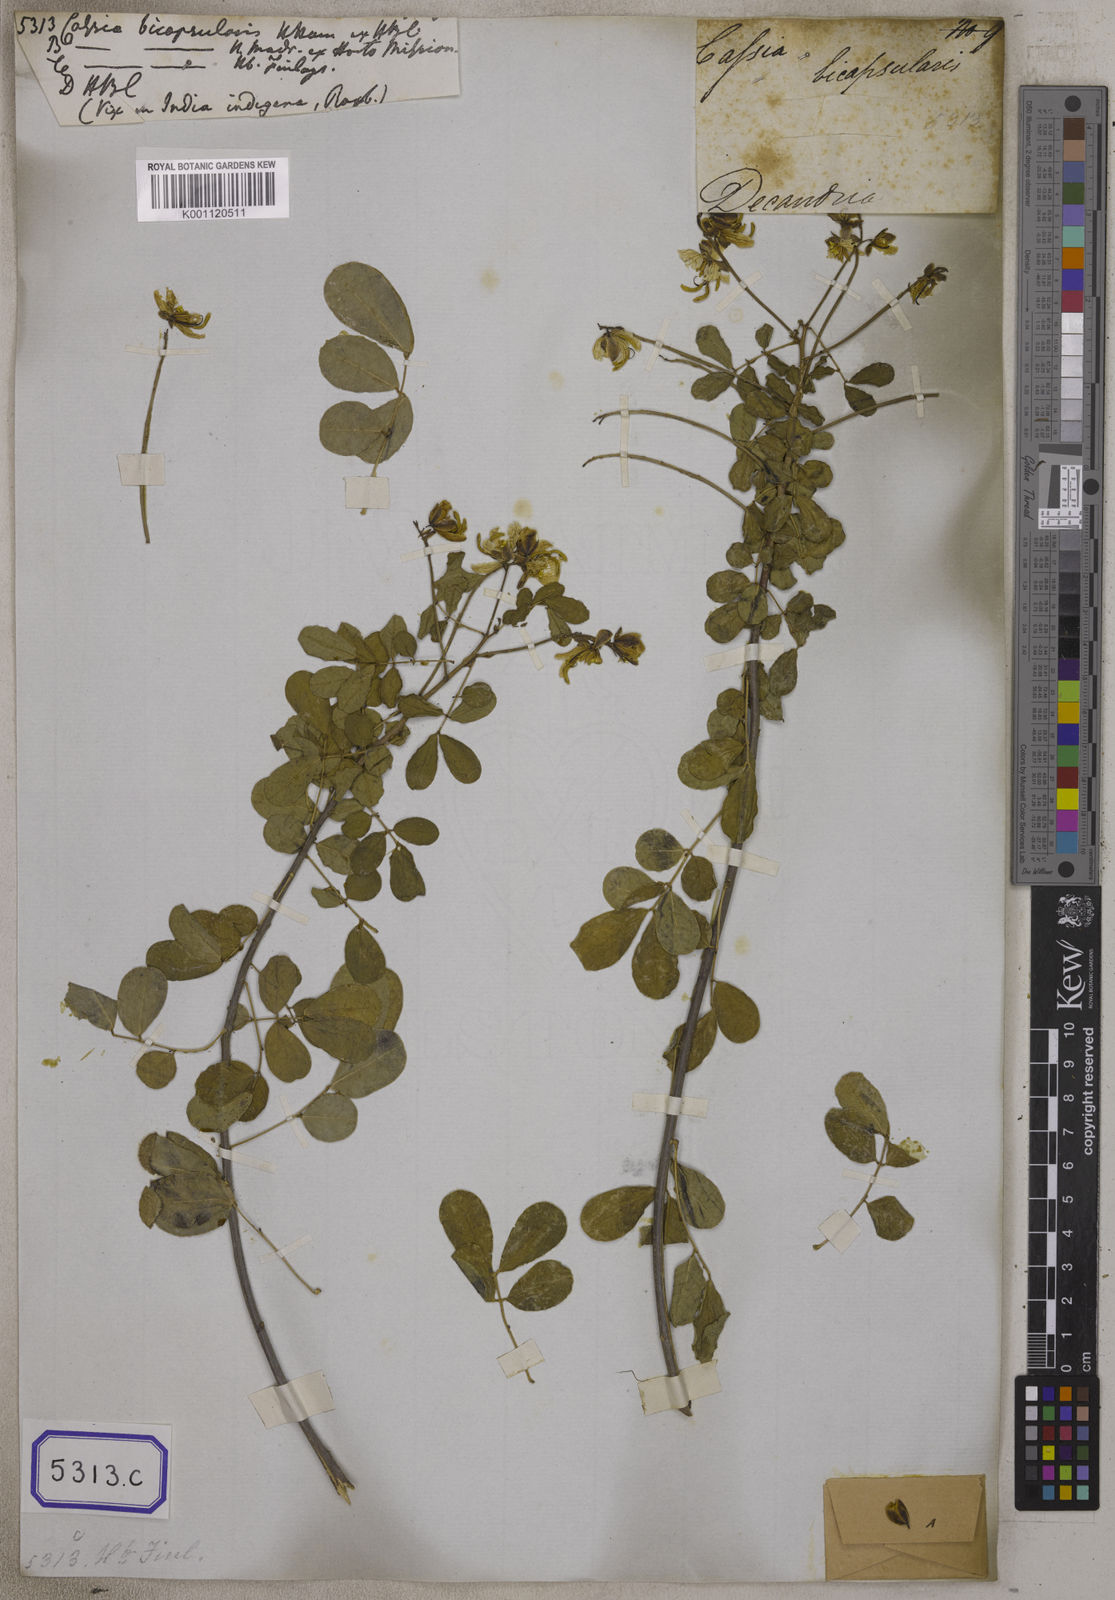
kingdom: Plantae
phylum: Tracheophyta
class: Magnoliopsida
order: Fabales
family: Fabaceae
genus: Senna
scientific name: Senna bicapsularis
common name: Christmasbush
